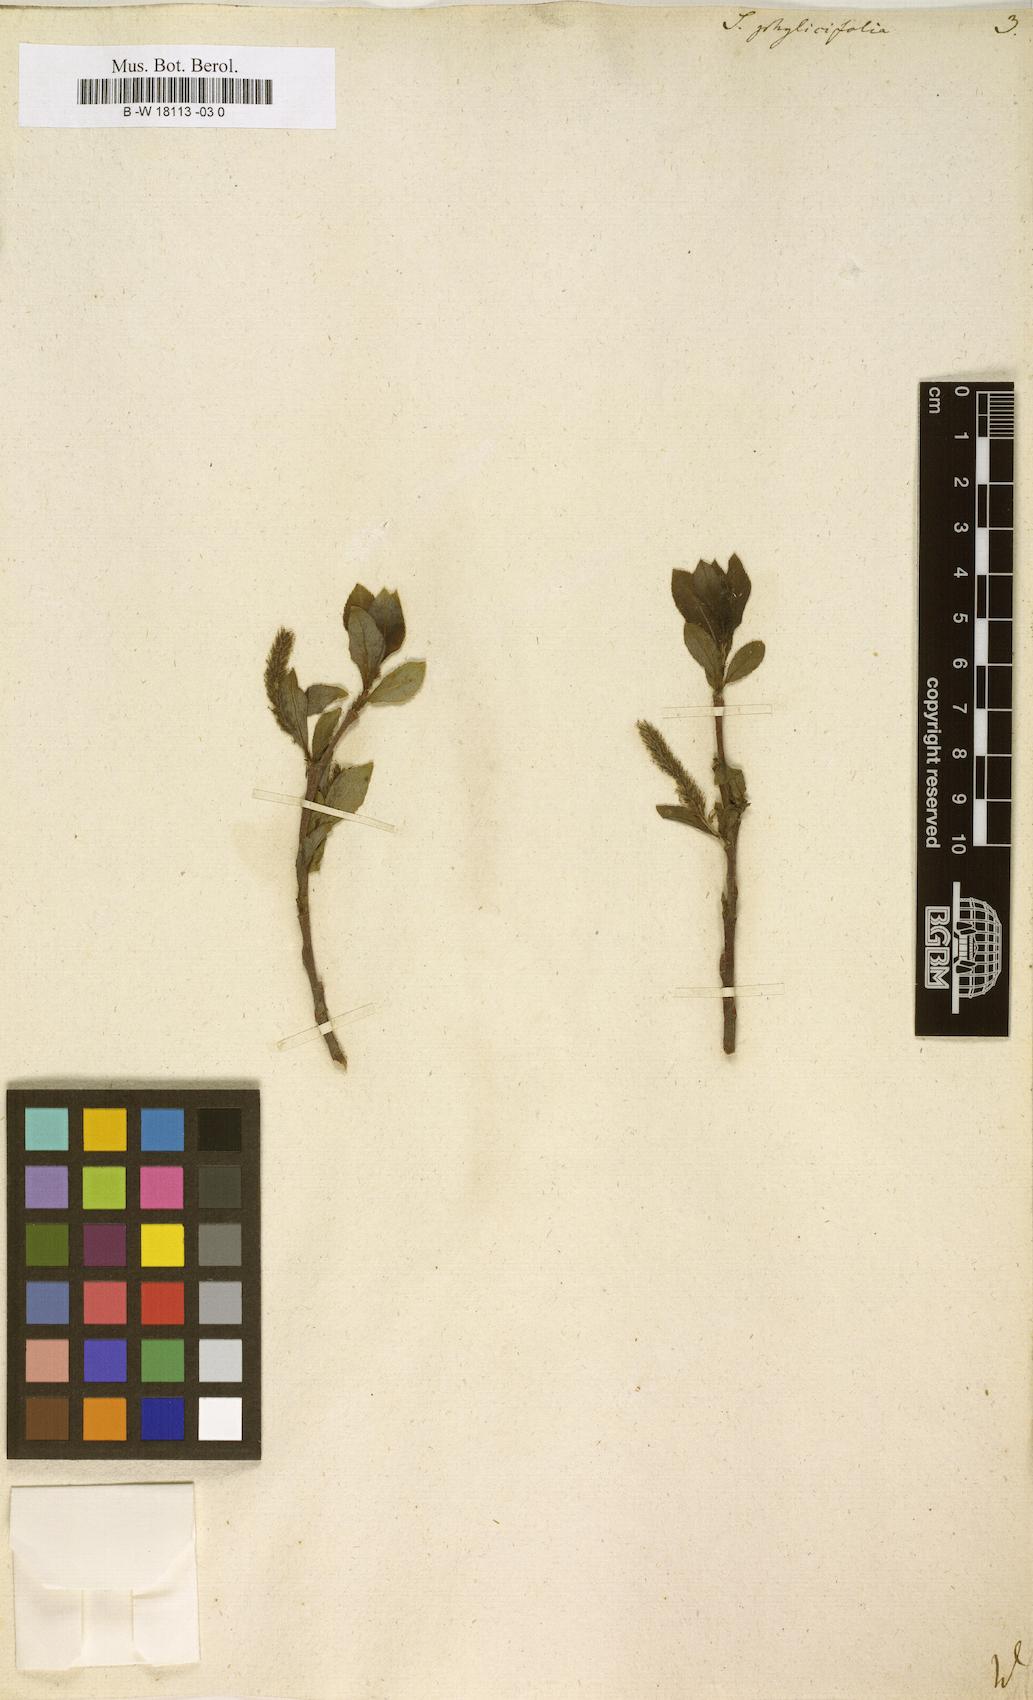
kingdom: Plantae
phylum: Tracheophyta
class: Magnoliopsida
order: Malpighiales
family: Salicaceae
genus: Salix
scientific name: Salix phylicifolia
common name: Tea-leaved willow
